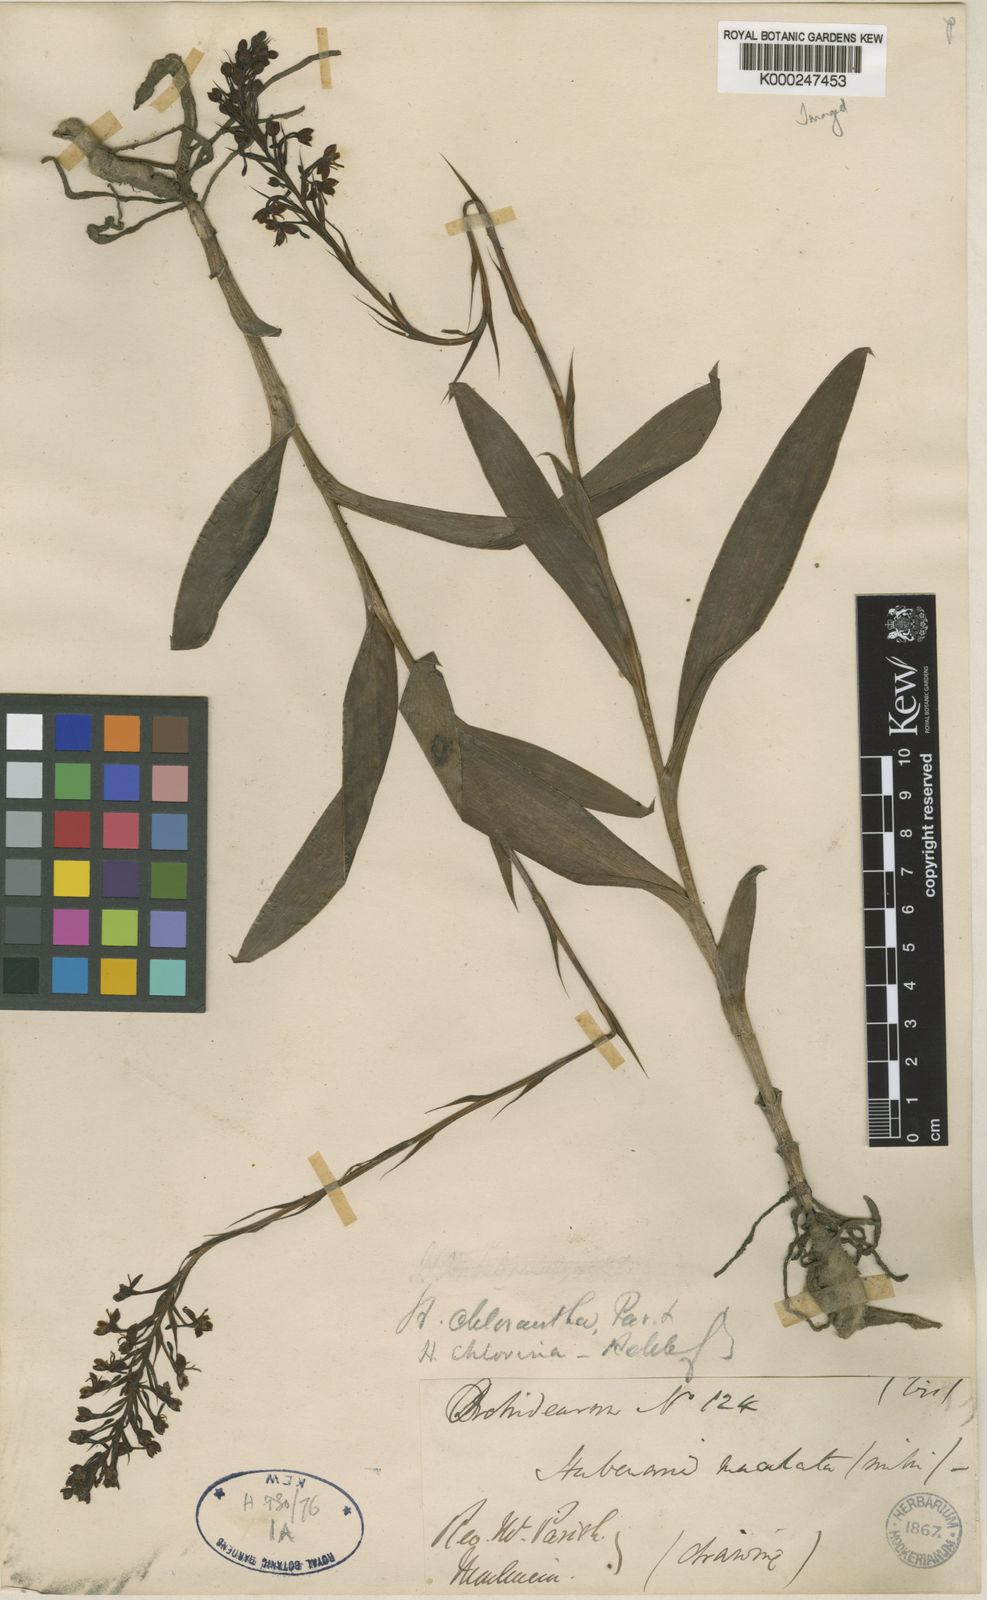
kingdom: Plantae
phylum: Tracheophyta
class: Liliopsida
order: Asparagales
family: Orchidaceae
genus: Habenaria
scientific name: Habenaria chlorina
